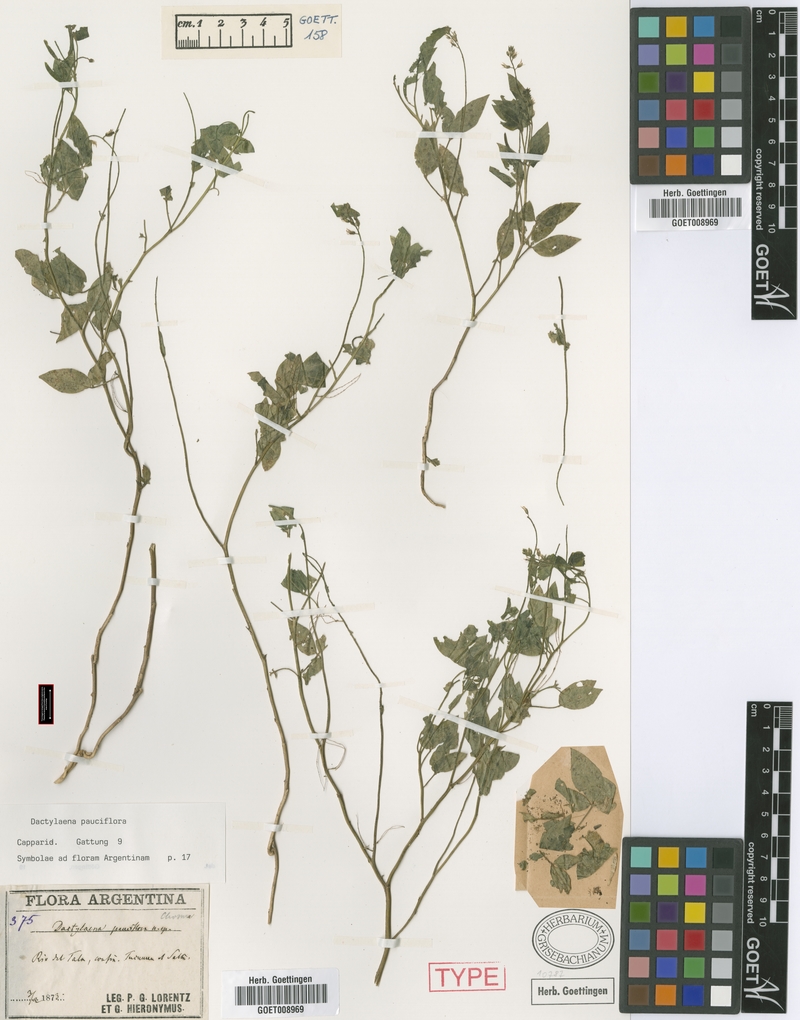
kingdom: Plantae
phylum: Tracheophyta
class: Magnoliopsida
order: Brassicales
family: Cleomaceae
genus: Dactylaena
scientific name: Dactylaena pauciflora
